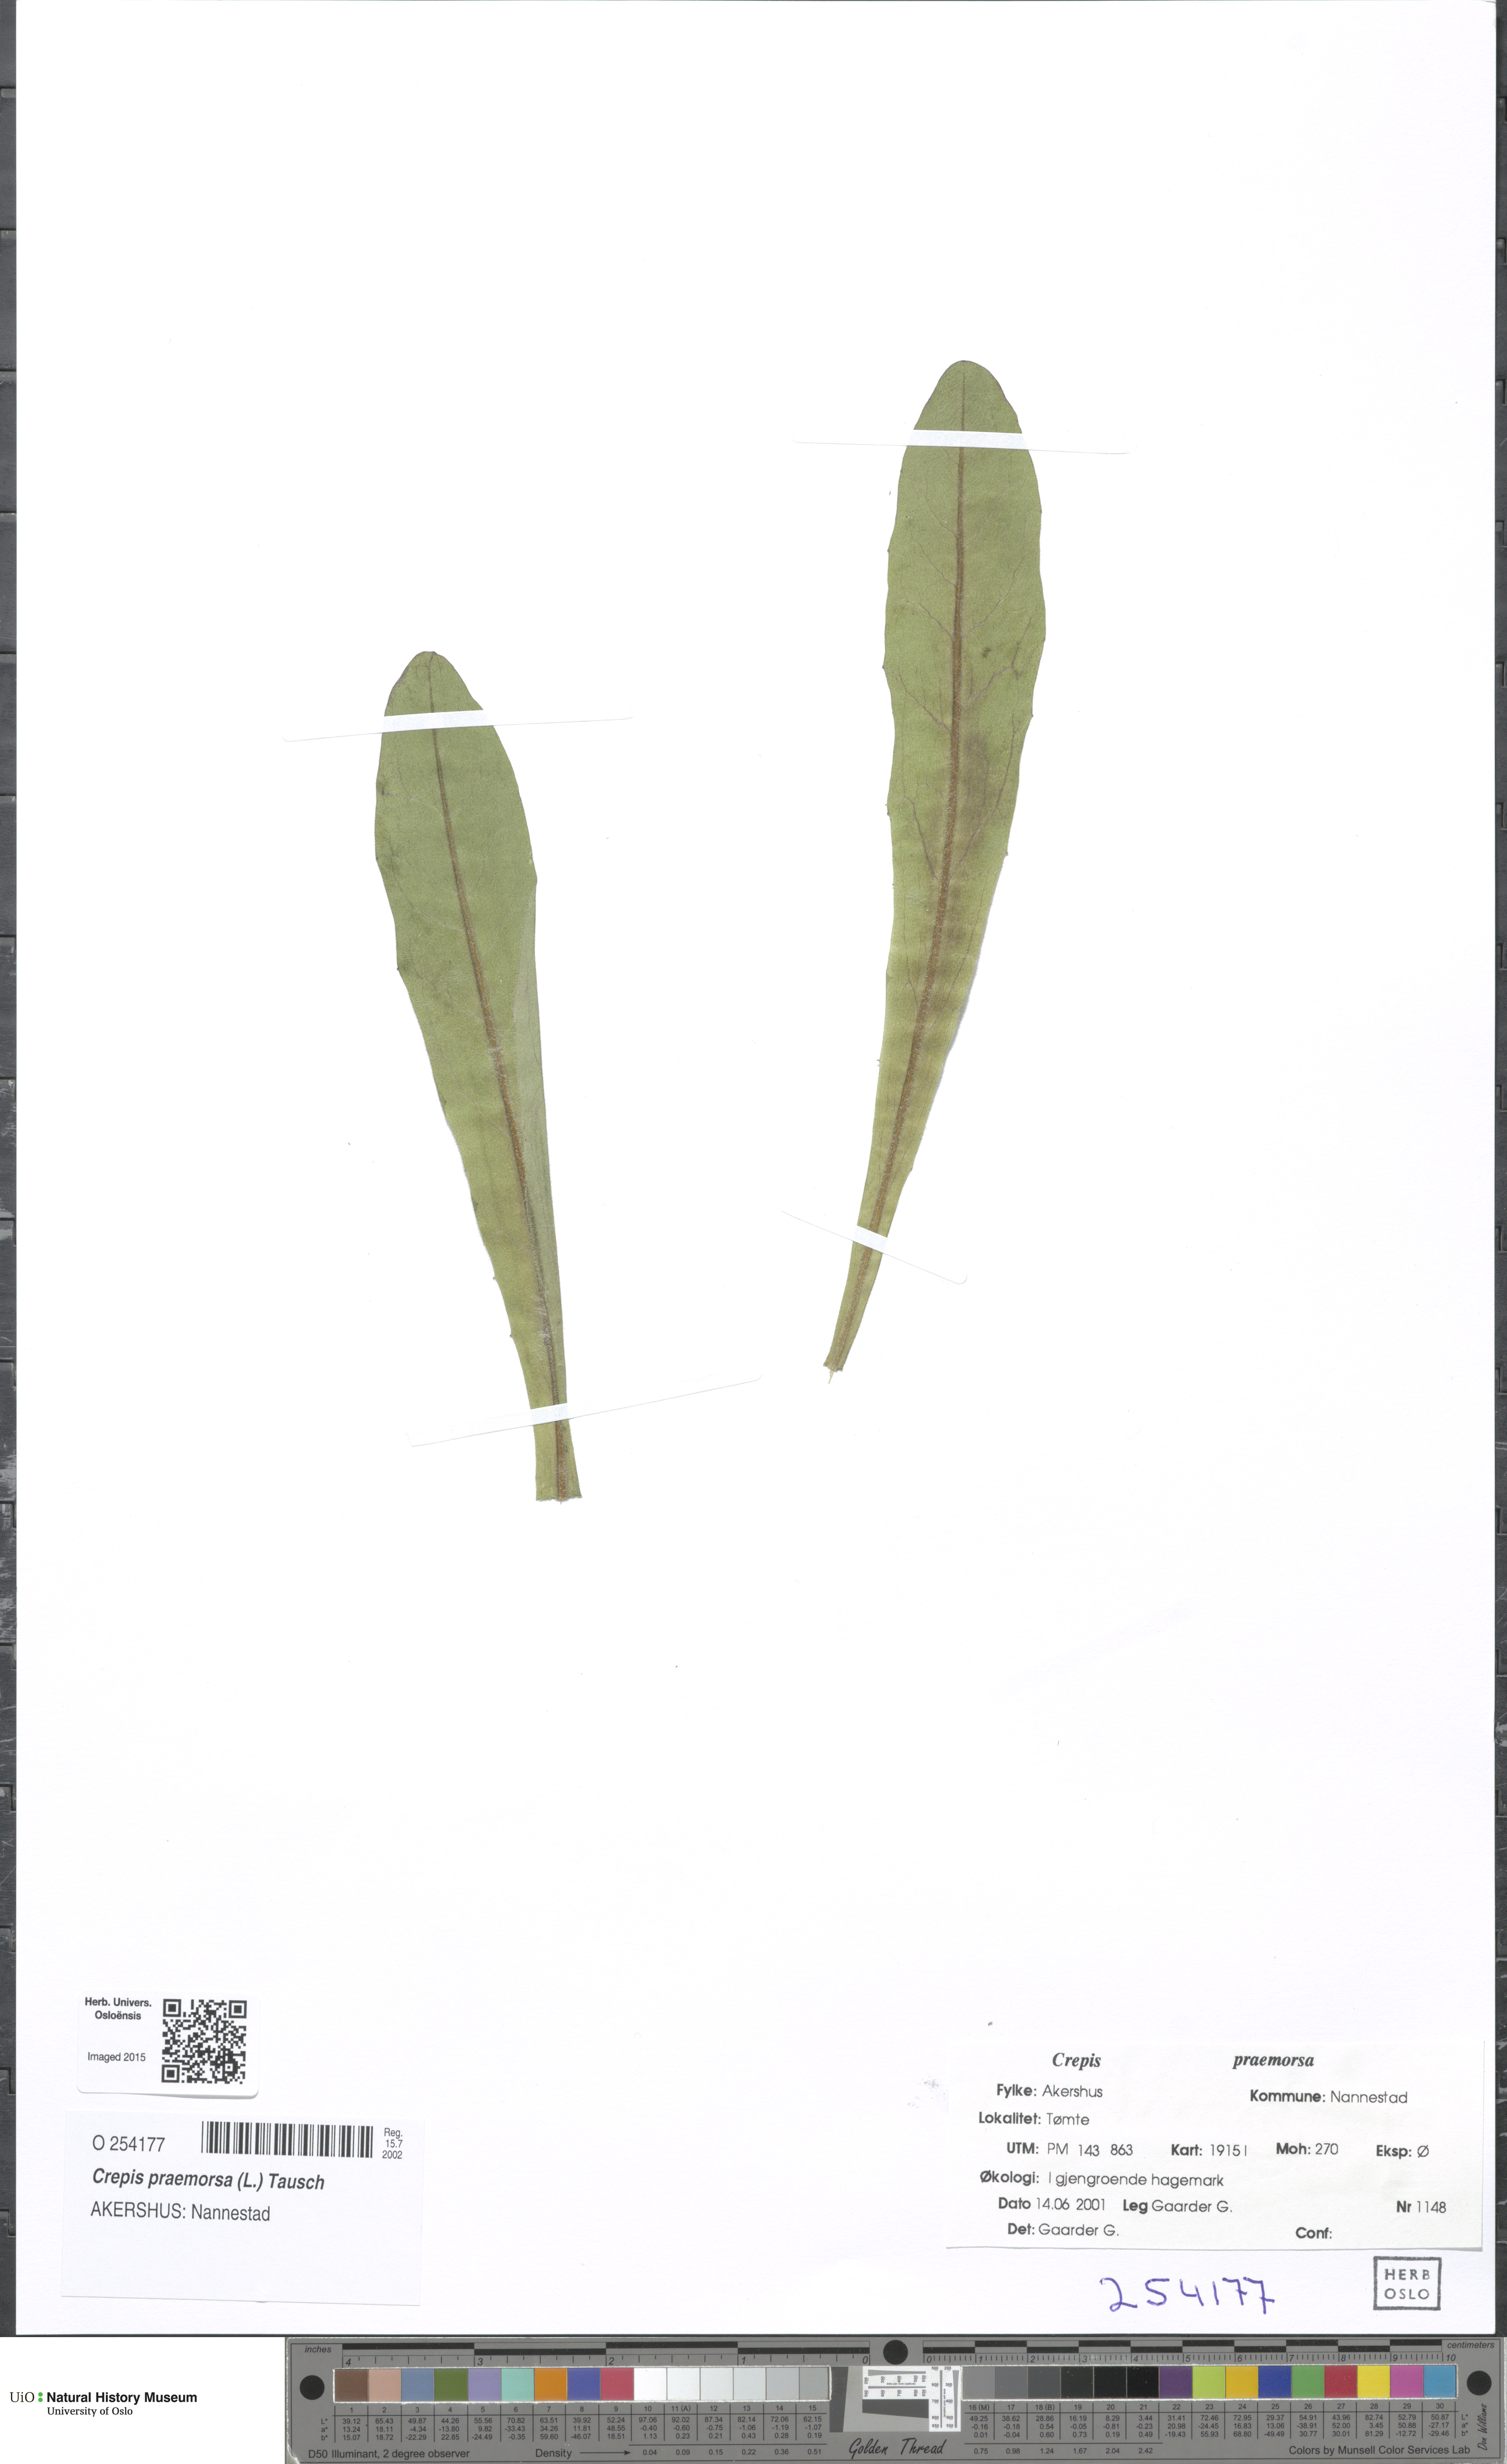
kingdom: Plantae
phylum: Tracheophyta
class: Magnoliopsida
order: Asterales
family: Asteraceae
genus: Crepis
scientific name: Crepis praemorsa
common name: Leafless hawk's-beard
